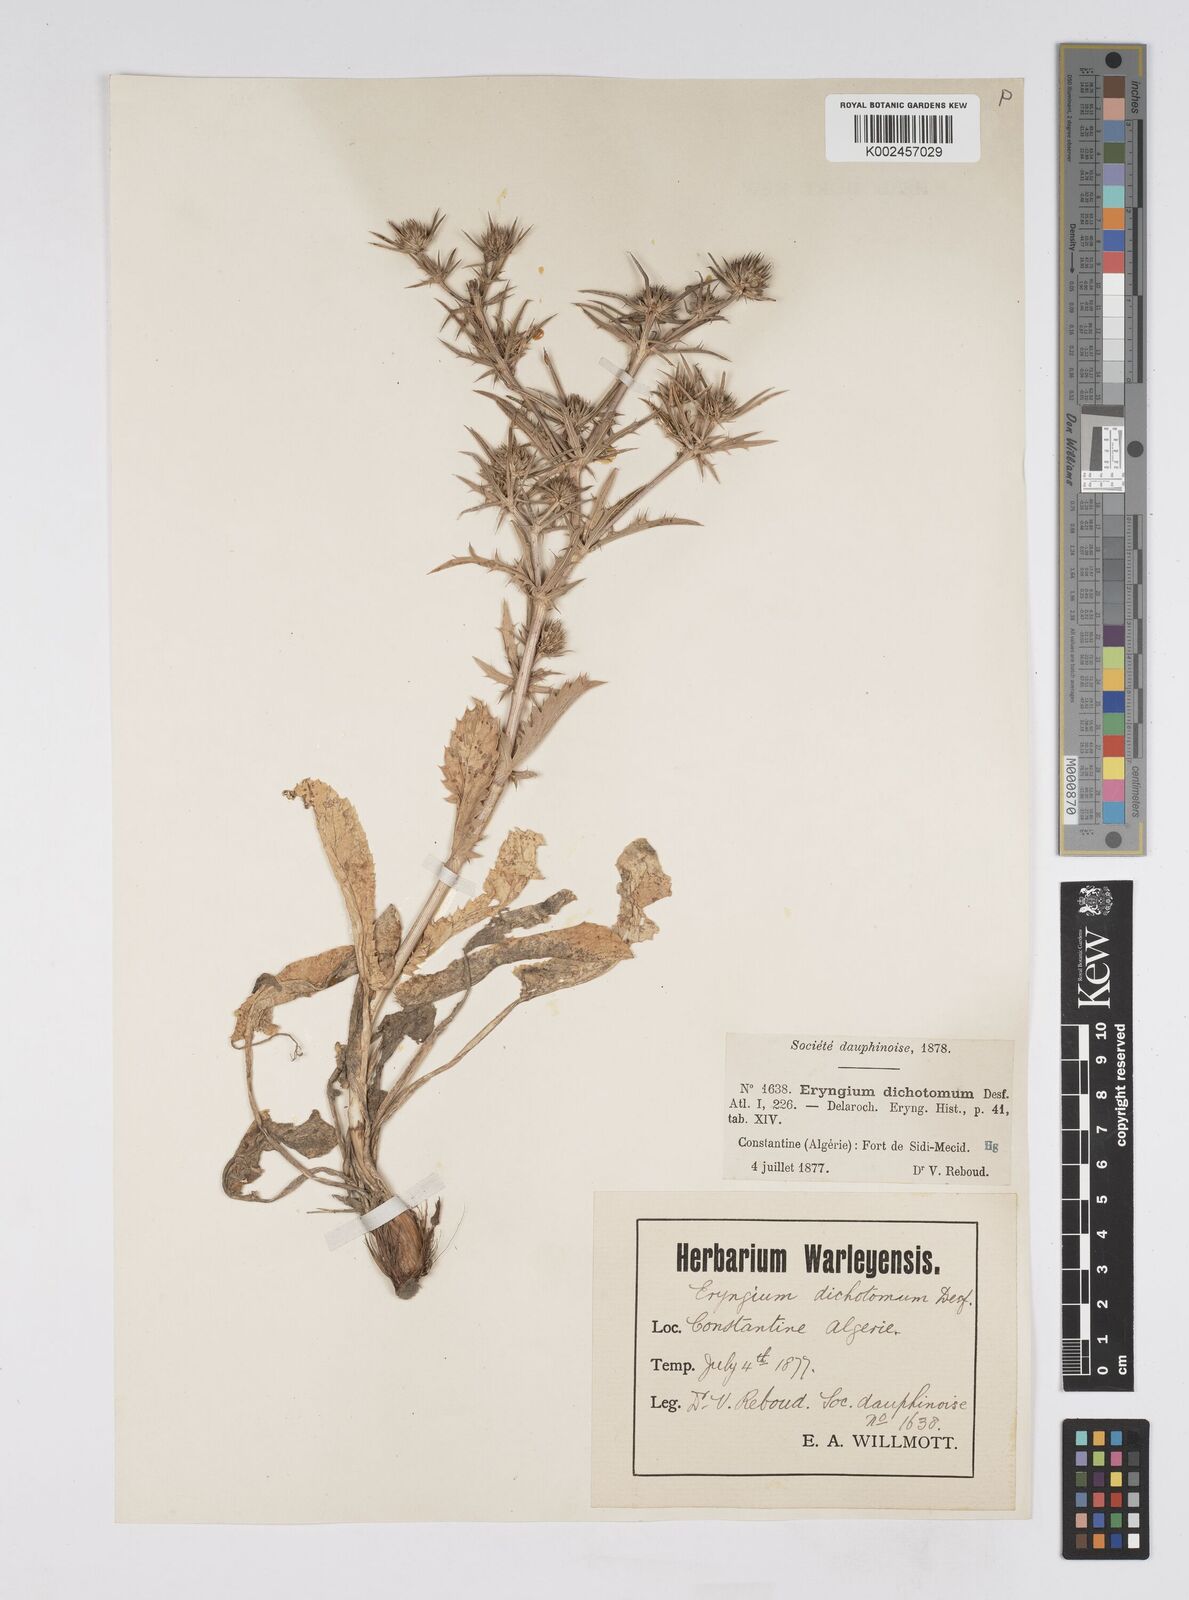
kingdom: Plantae
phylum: Tracheophyta
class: Magnoliopsida
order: Apiales
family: Apiaceae
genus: Eryngium
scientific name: Eryngium dichotomum
